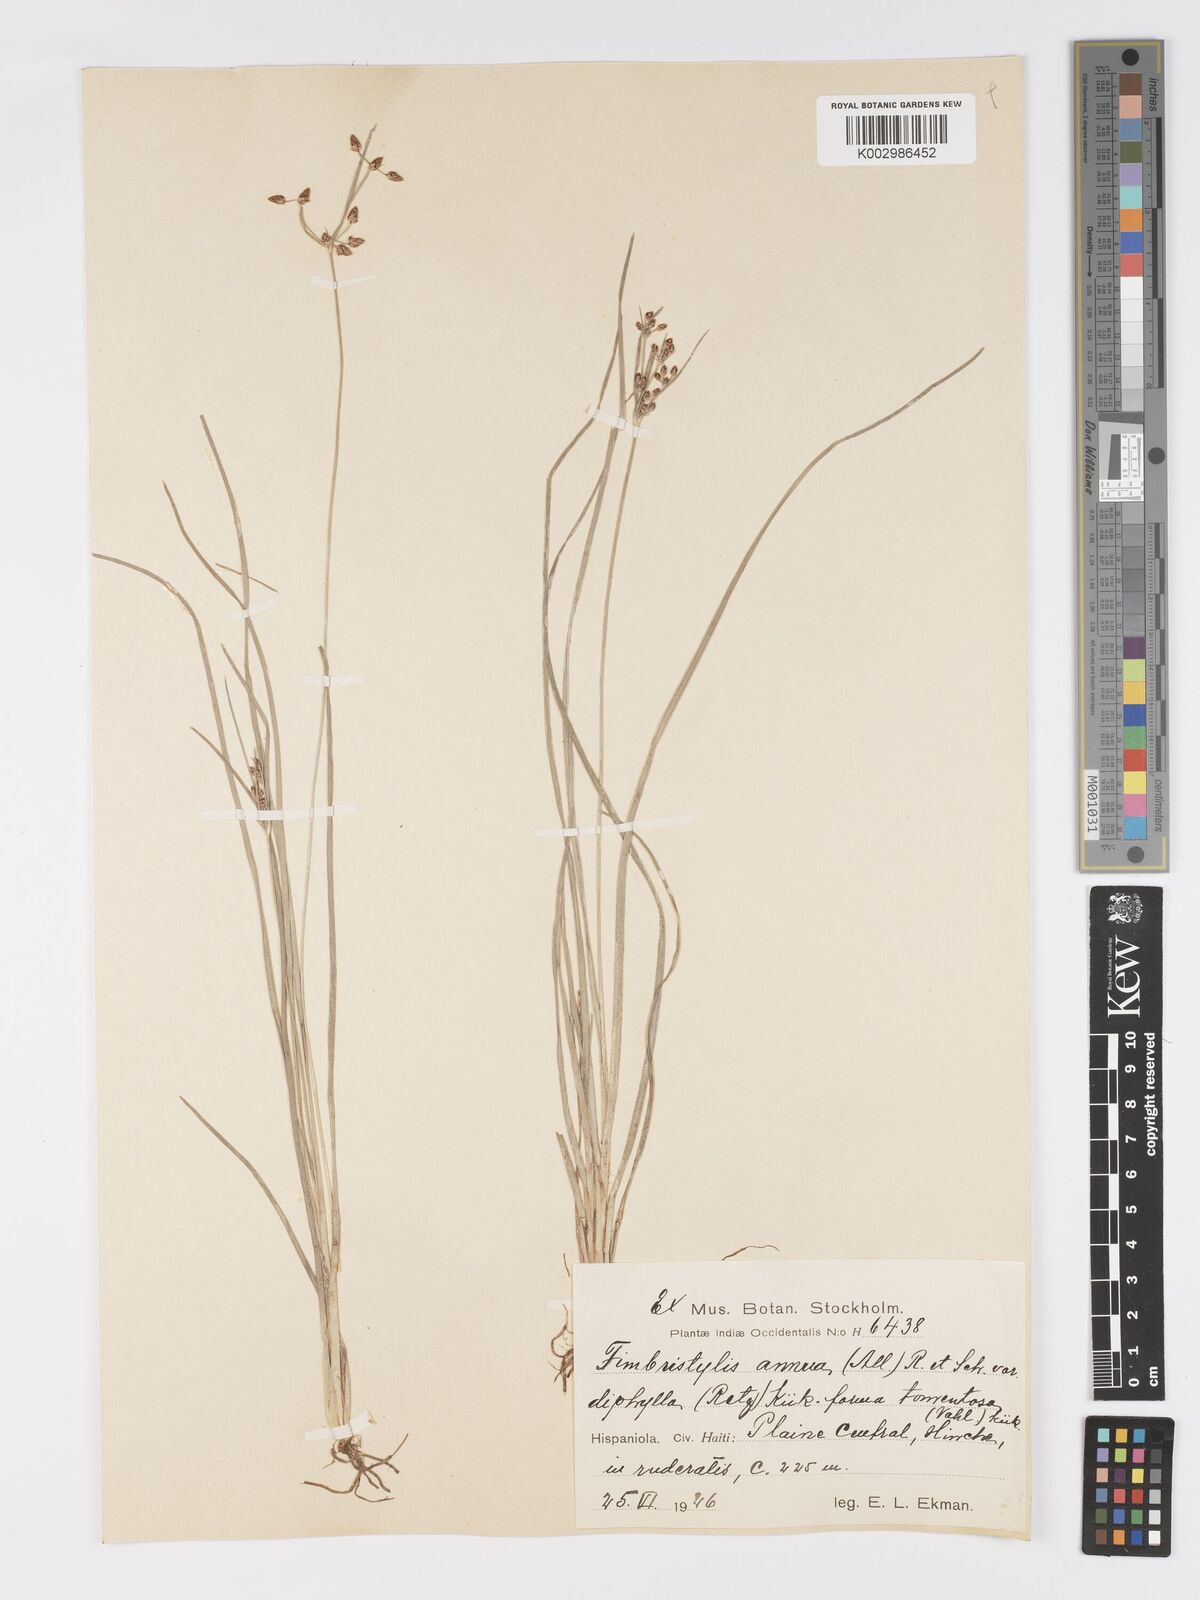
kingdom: Plantae
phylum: Tracheophyta
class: Liliopsida
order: Poales
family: Cyperaceae
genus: Fimbristylis
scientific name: Fimbristylis dichotoma
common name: Forked fimbry
